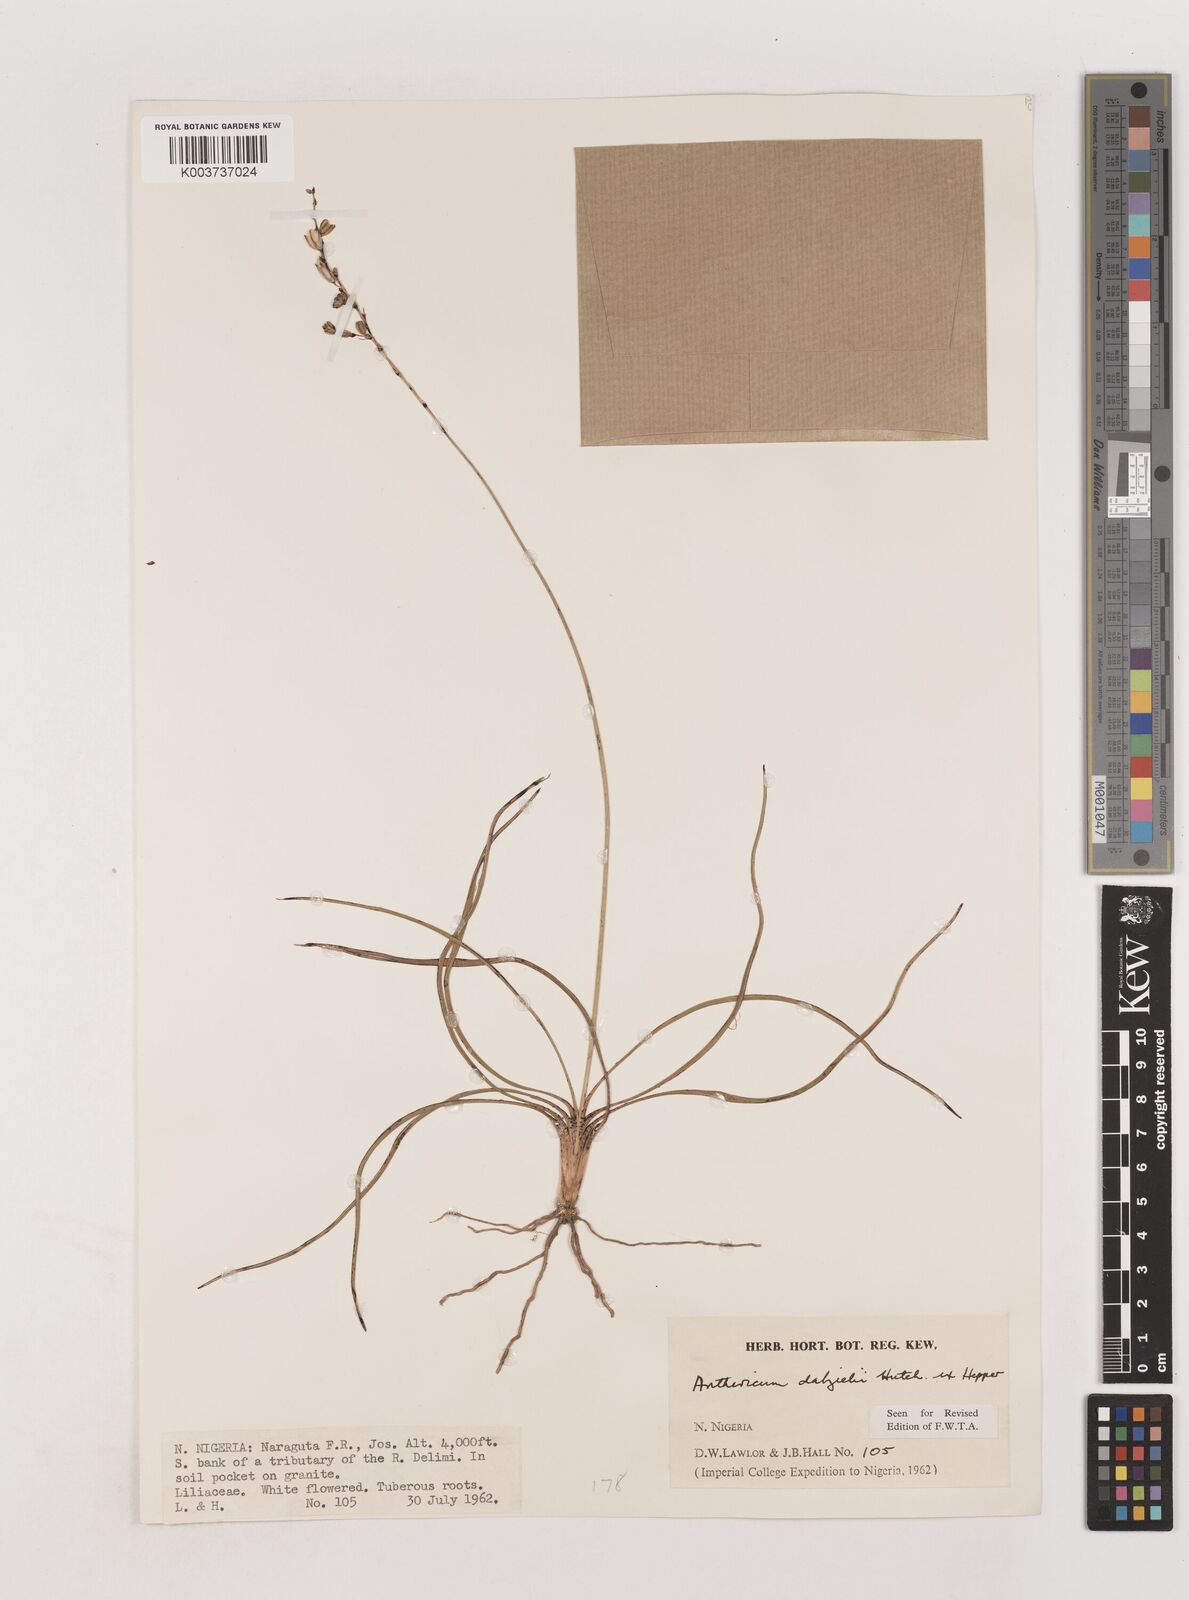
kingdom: Plantae
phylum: Tracheophyta
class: Liliopsida
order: Asparagales
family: Asparagaceae
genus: Chlorophytum
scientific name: Chlorophytum dalzielii
